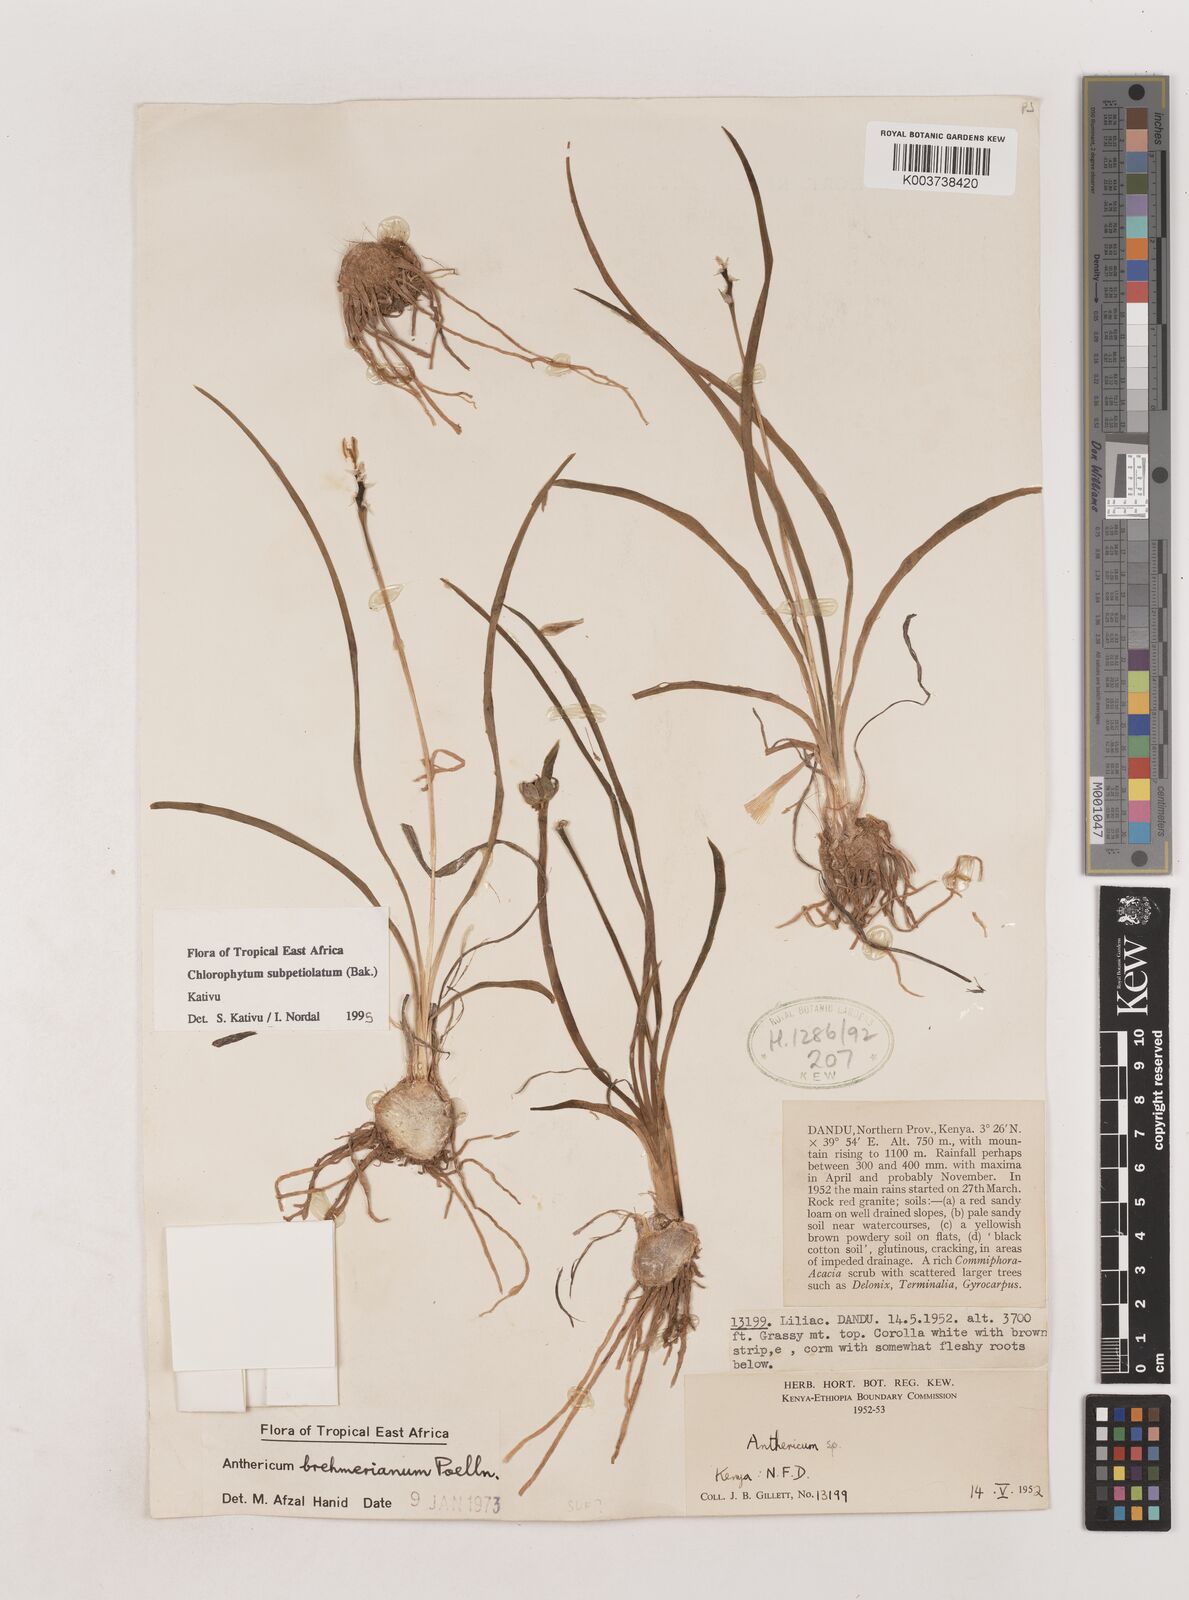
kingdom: Plantae
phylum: Tracheophyta
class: Liliopsida
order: Asparagales
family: Asparagaceae
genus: Chlorophytum
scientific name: Chlorophytum subpetiolatum
